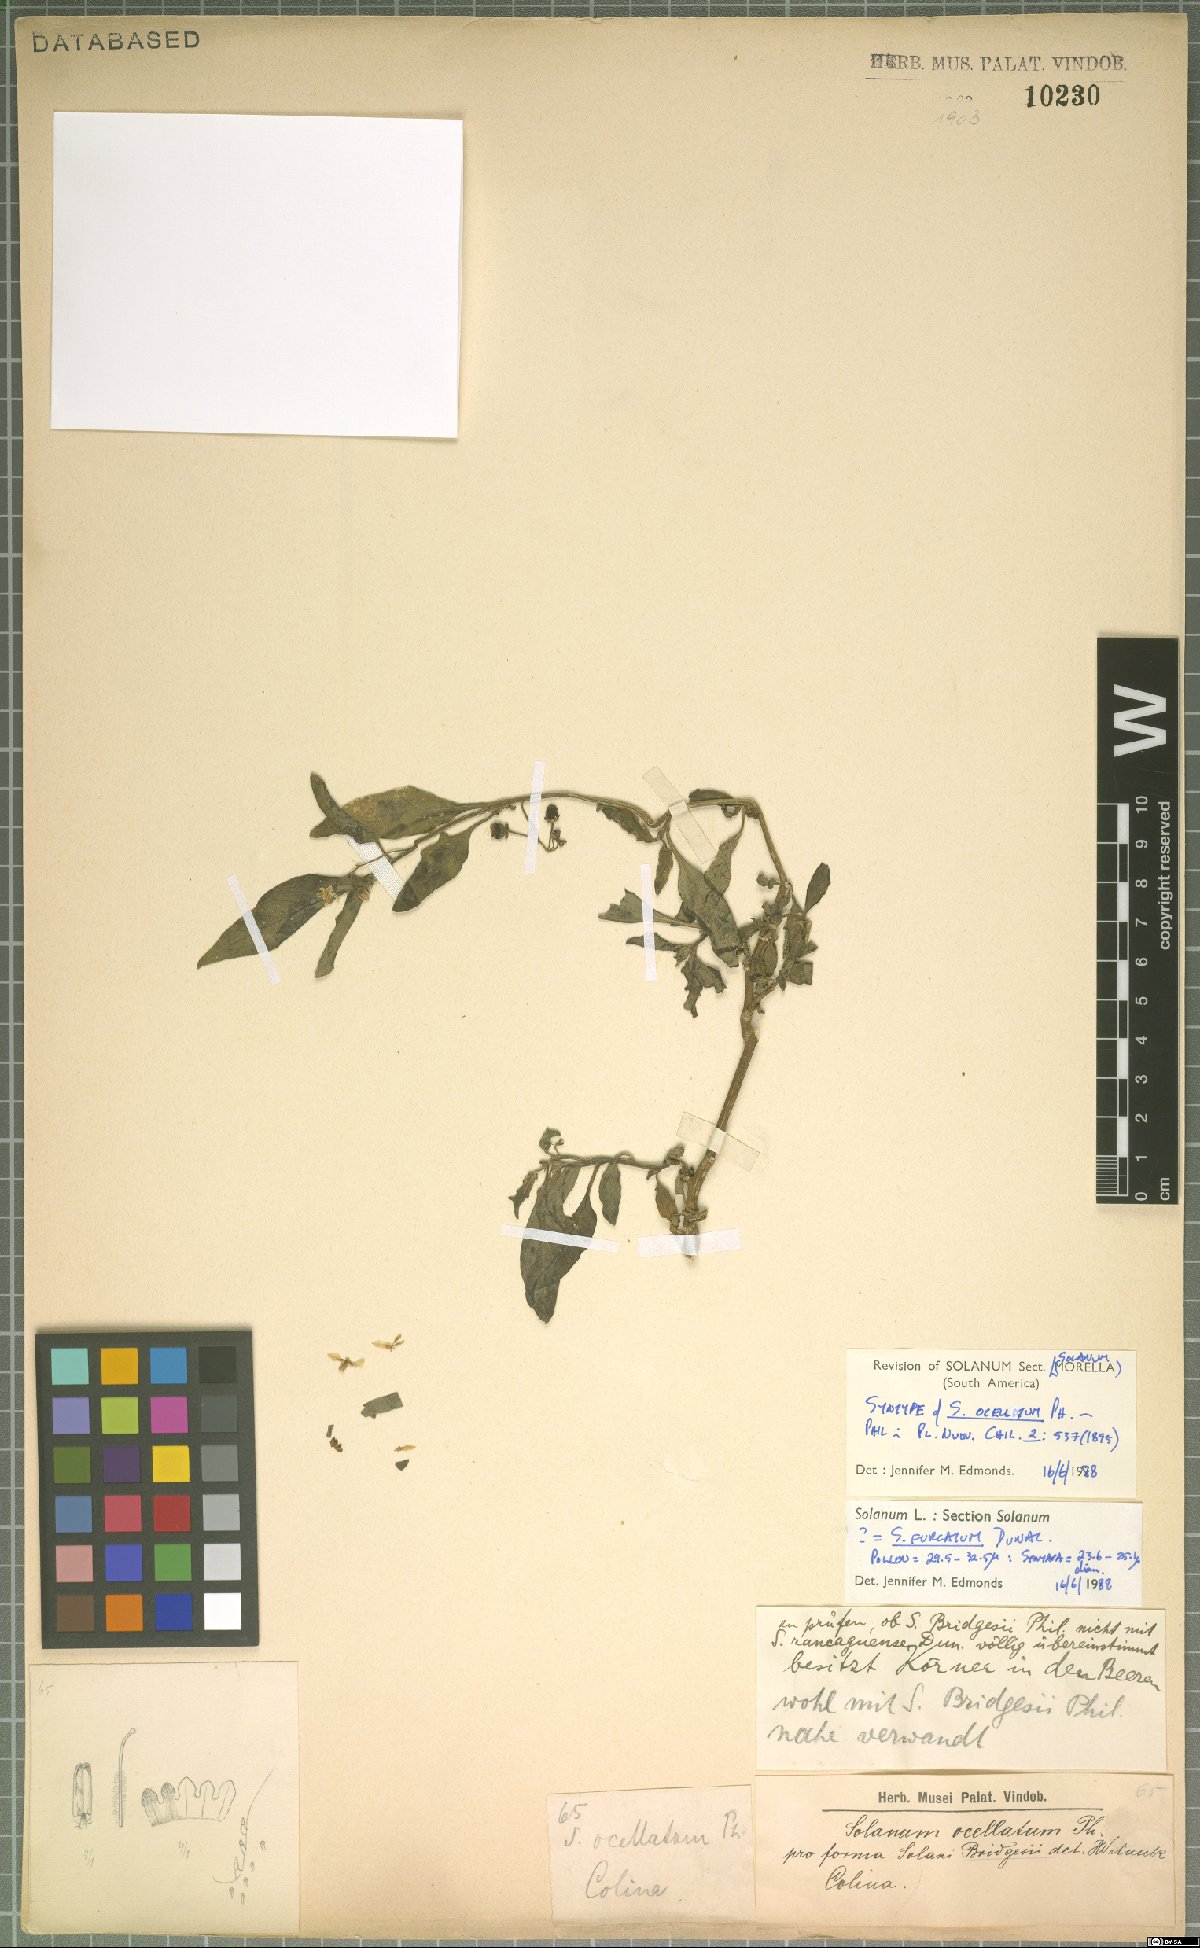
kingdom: Plantae
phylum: Tracheophyta
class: Magnoliopsida
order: Solanales
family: Solanaceae
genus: Solanum
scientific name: Solanum furcatum
